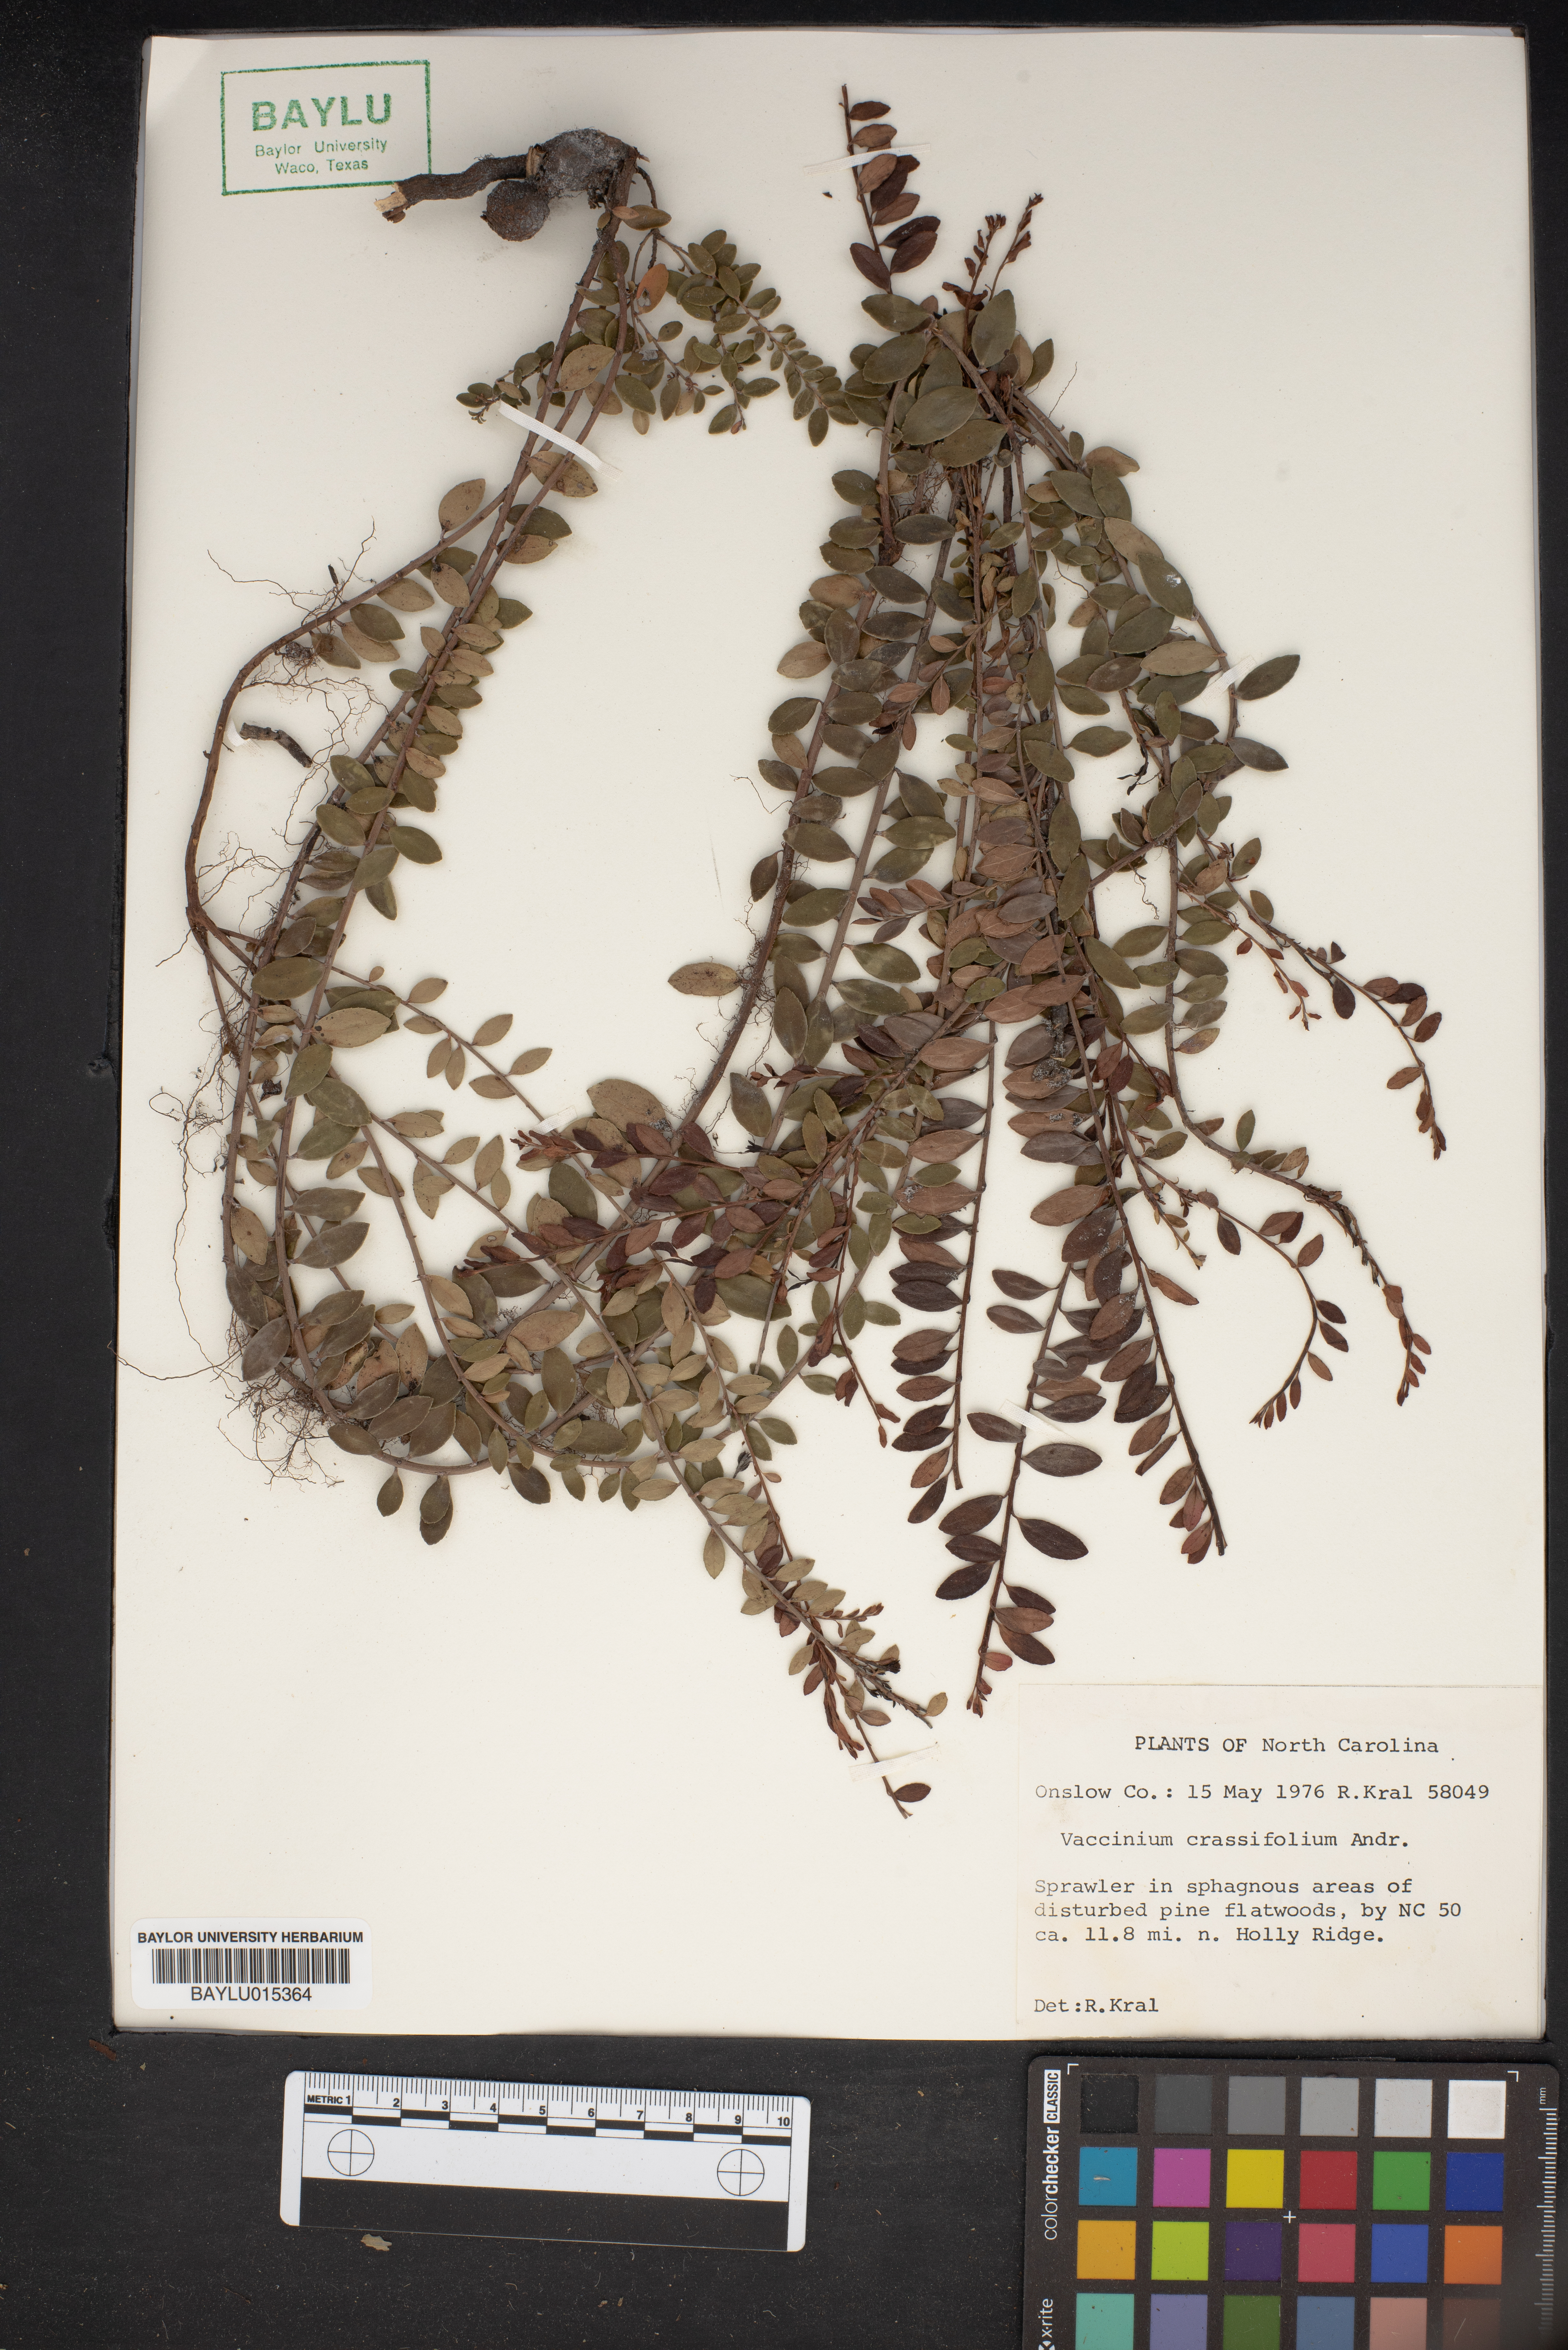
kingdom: Plantae
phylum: Tracheophyta
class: Magnoliopsida
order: Ericales
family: Ericaceae
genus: Vaccinium
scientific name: Vaccinium crassifolium
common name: Creeping blueberry
